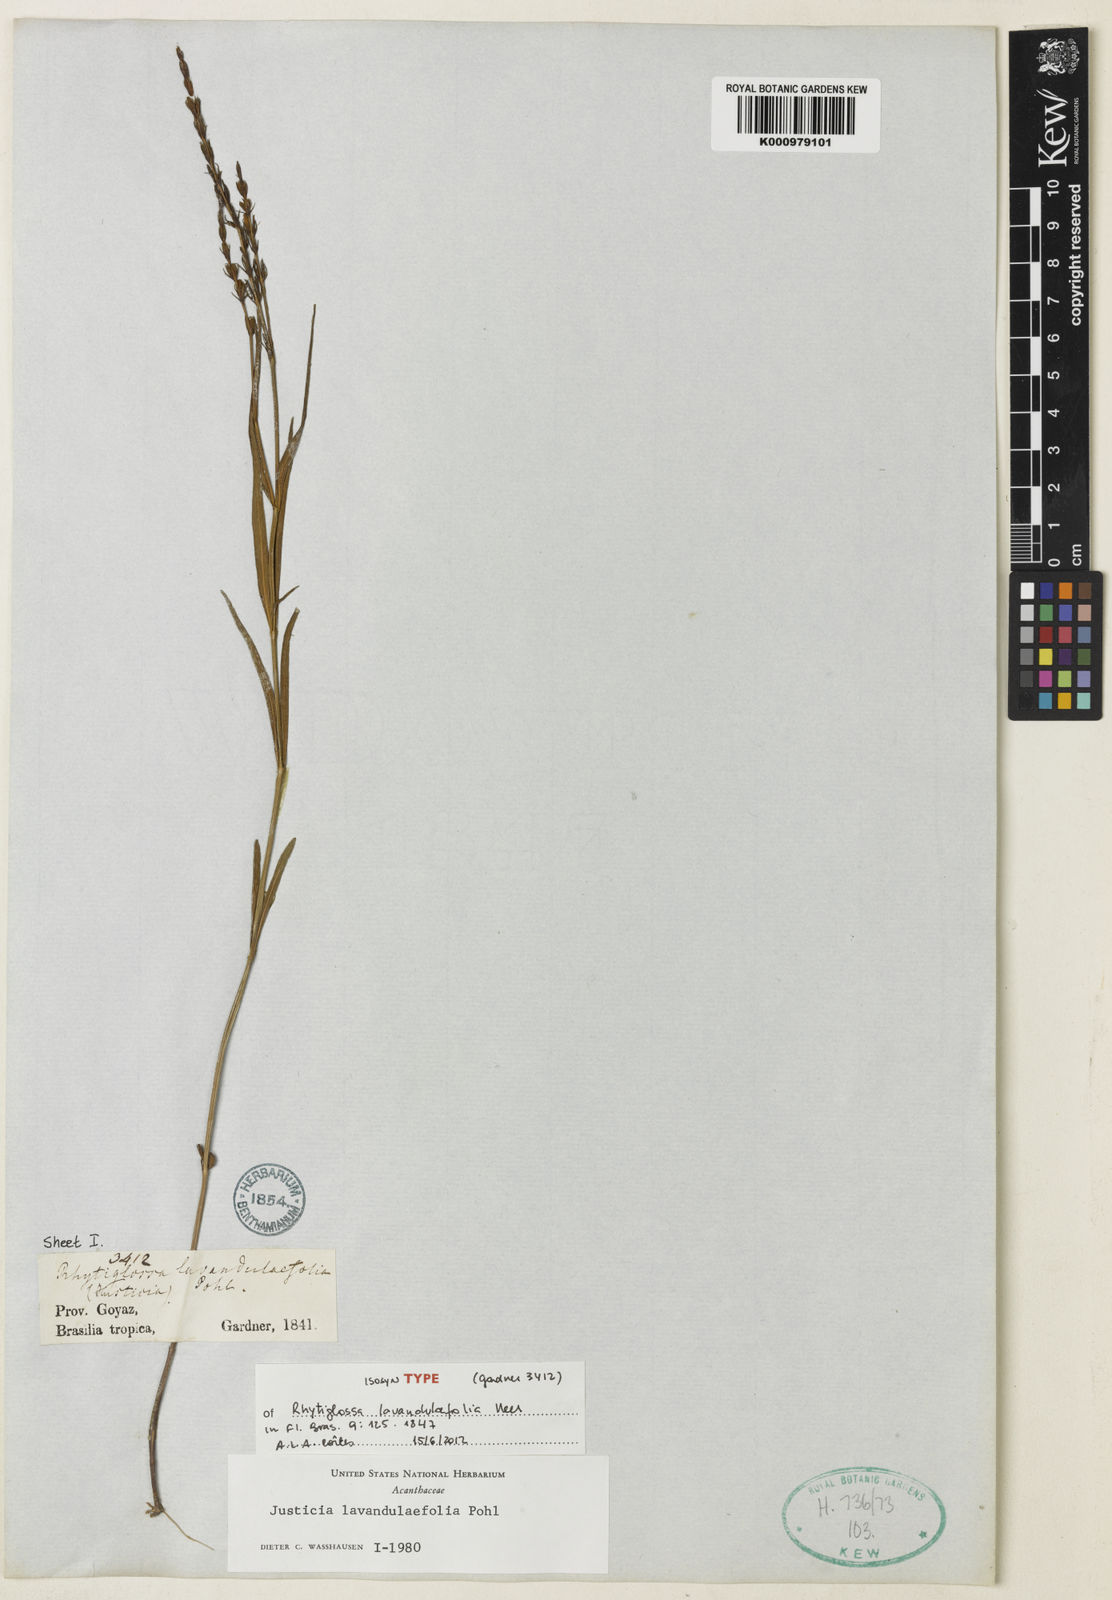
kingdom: Plantae
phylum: Tracheophyta
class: Magnoliopsida
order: Lamiales
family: Acanthaceae
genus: Justicia
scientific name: Justicia lavandulifolia
